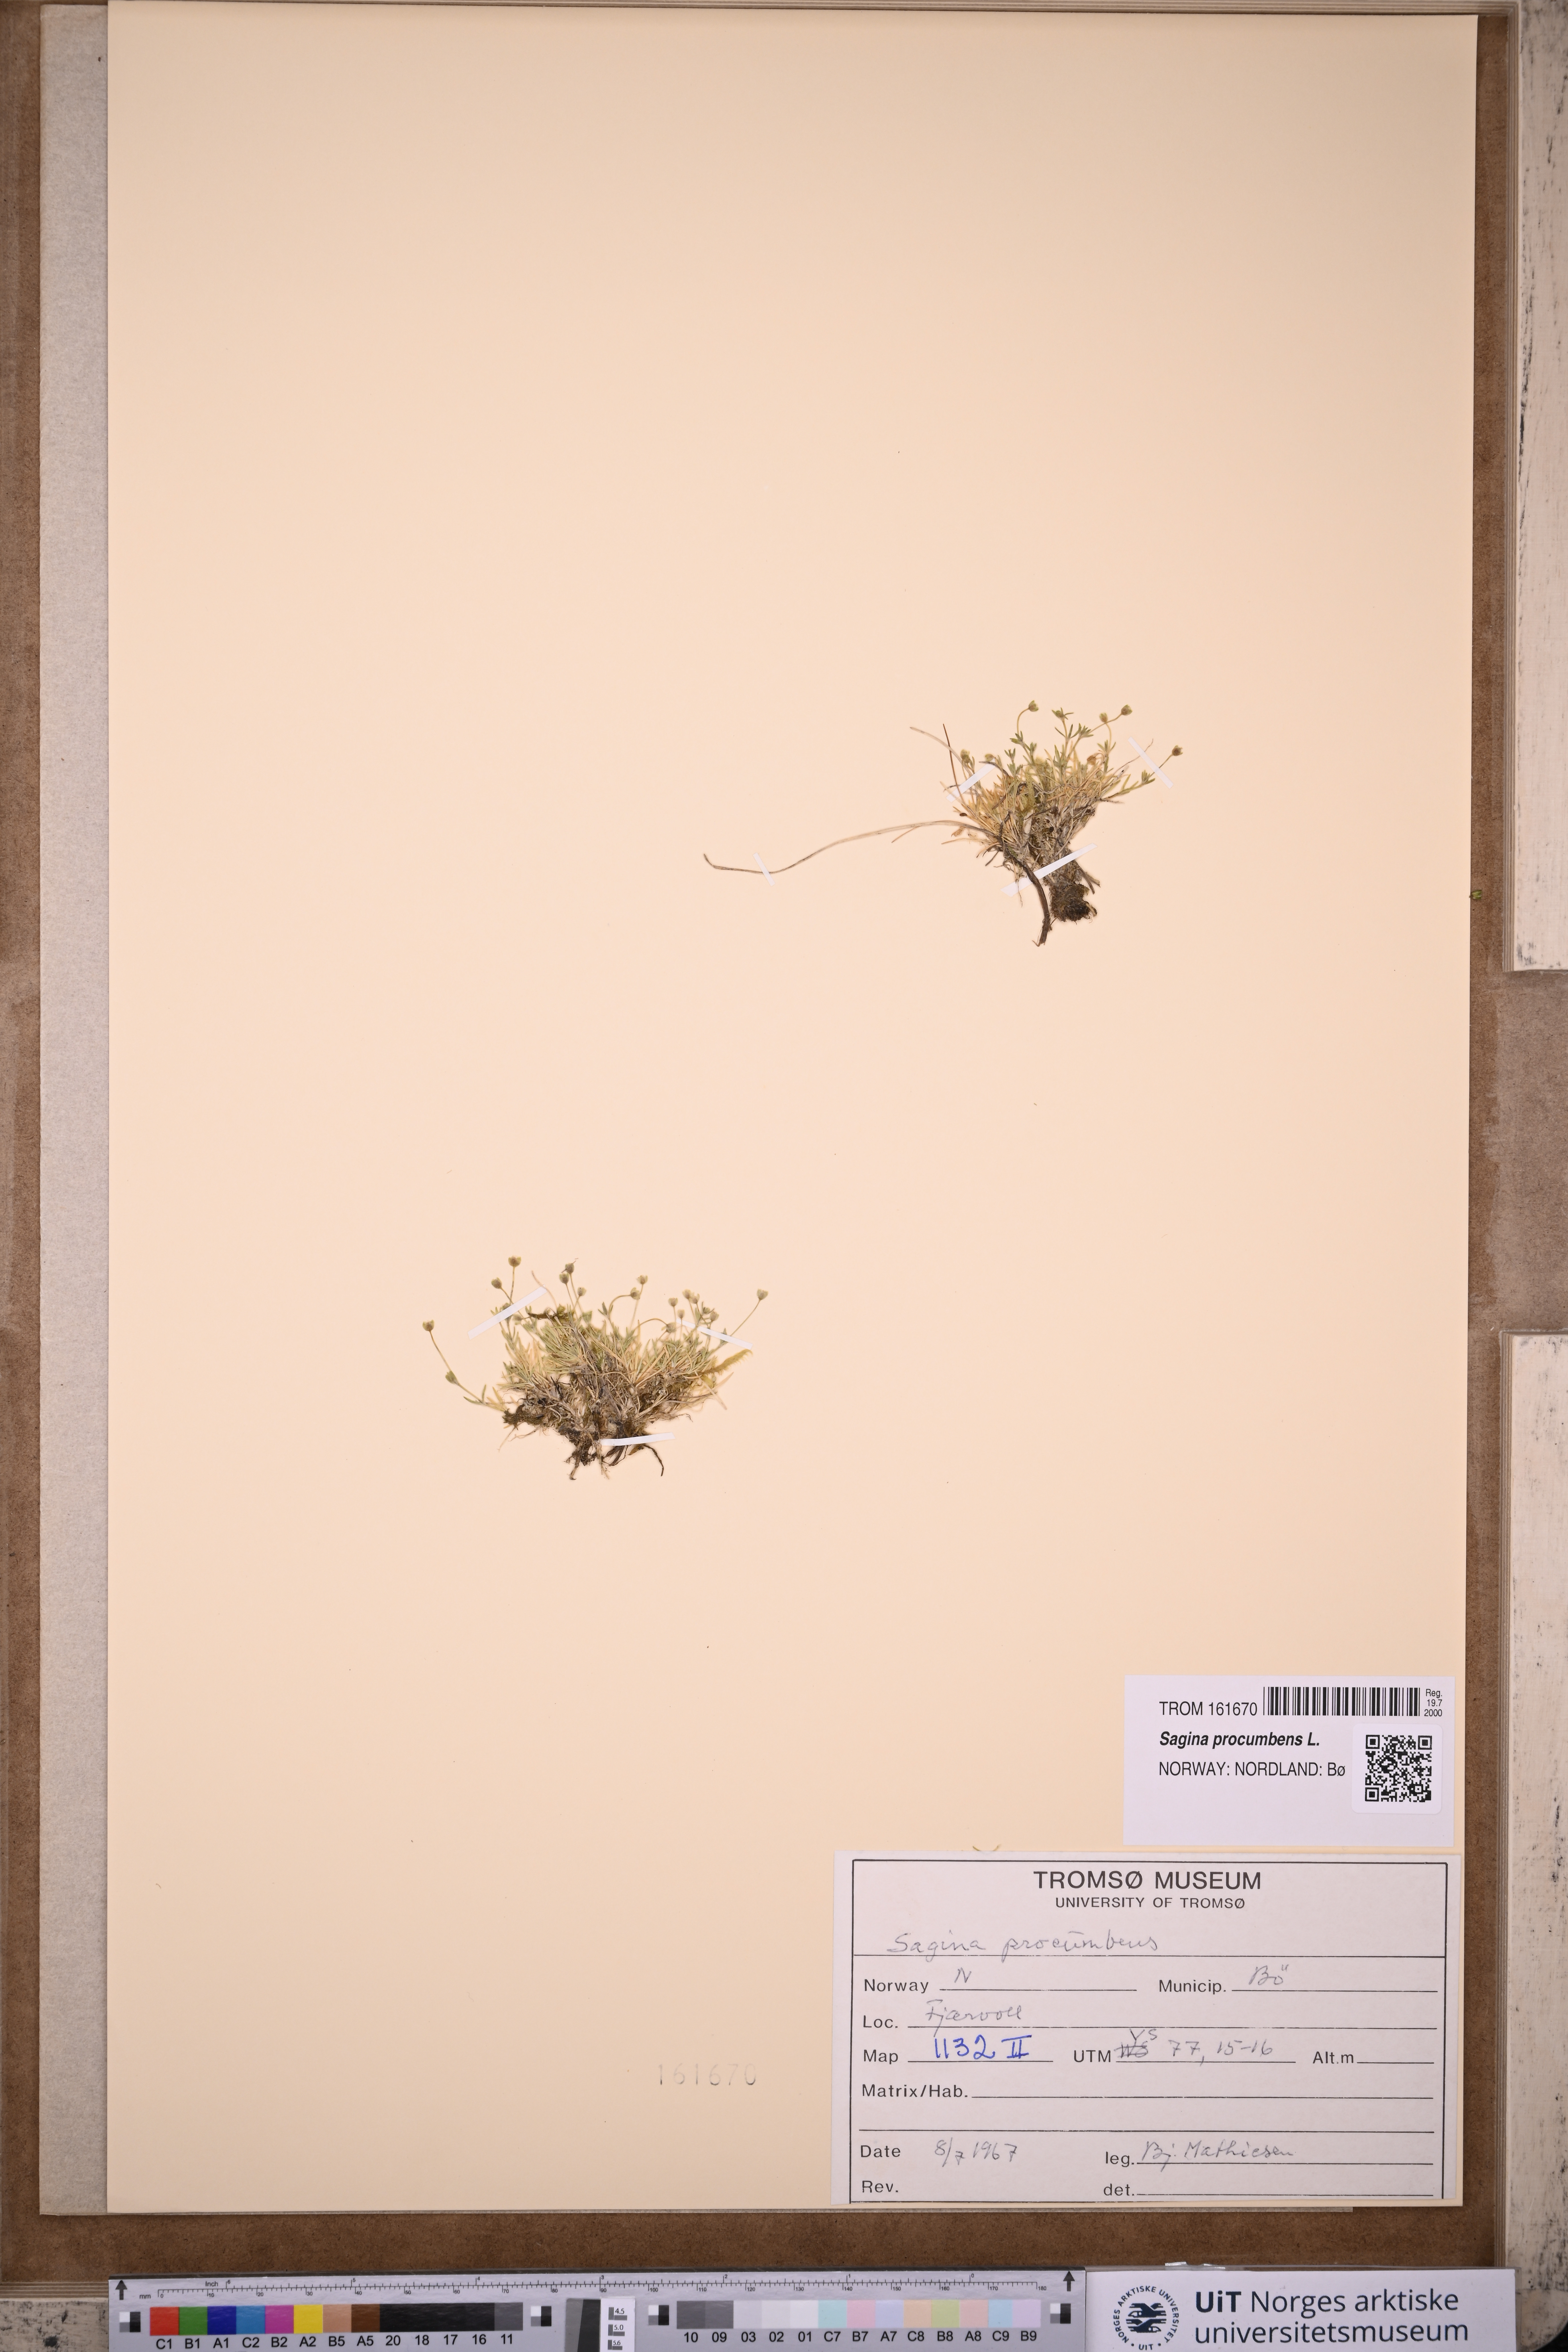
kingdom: Plantae
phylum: Tracheophyta
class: Magnoliopsida
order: Caryophyllales
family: Caryophyllaceae
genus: Sagina
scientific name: Sagina procumbens
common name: Procumbent pearlwort
